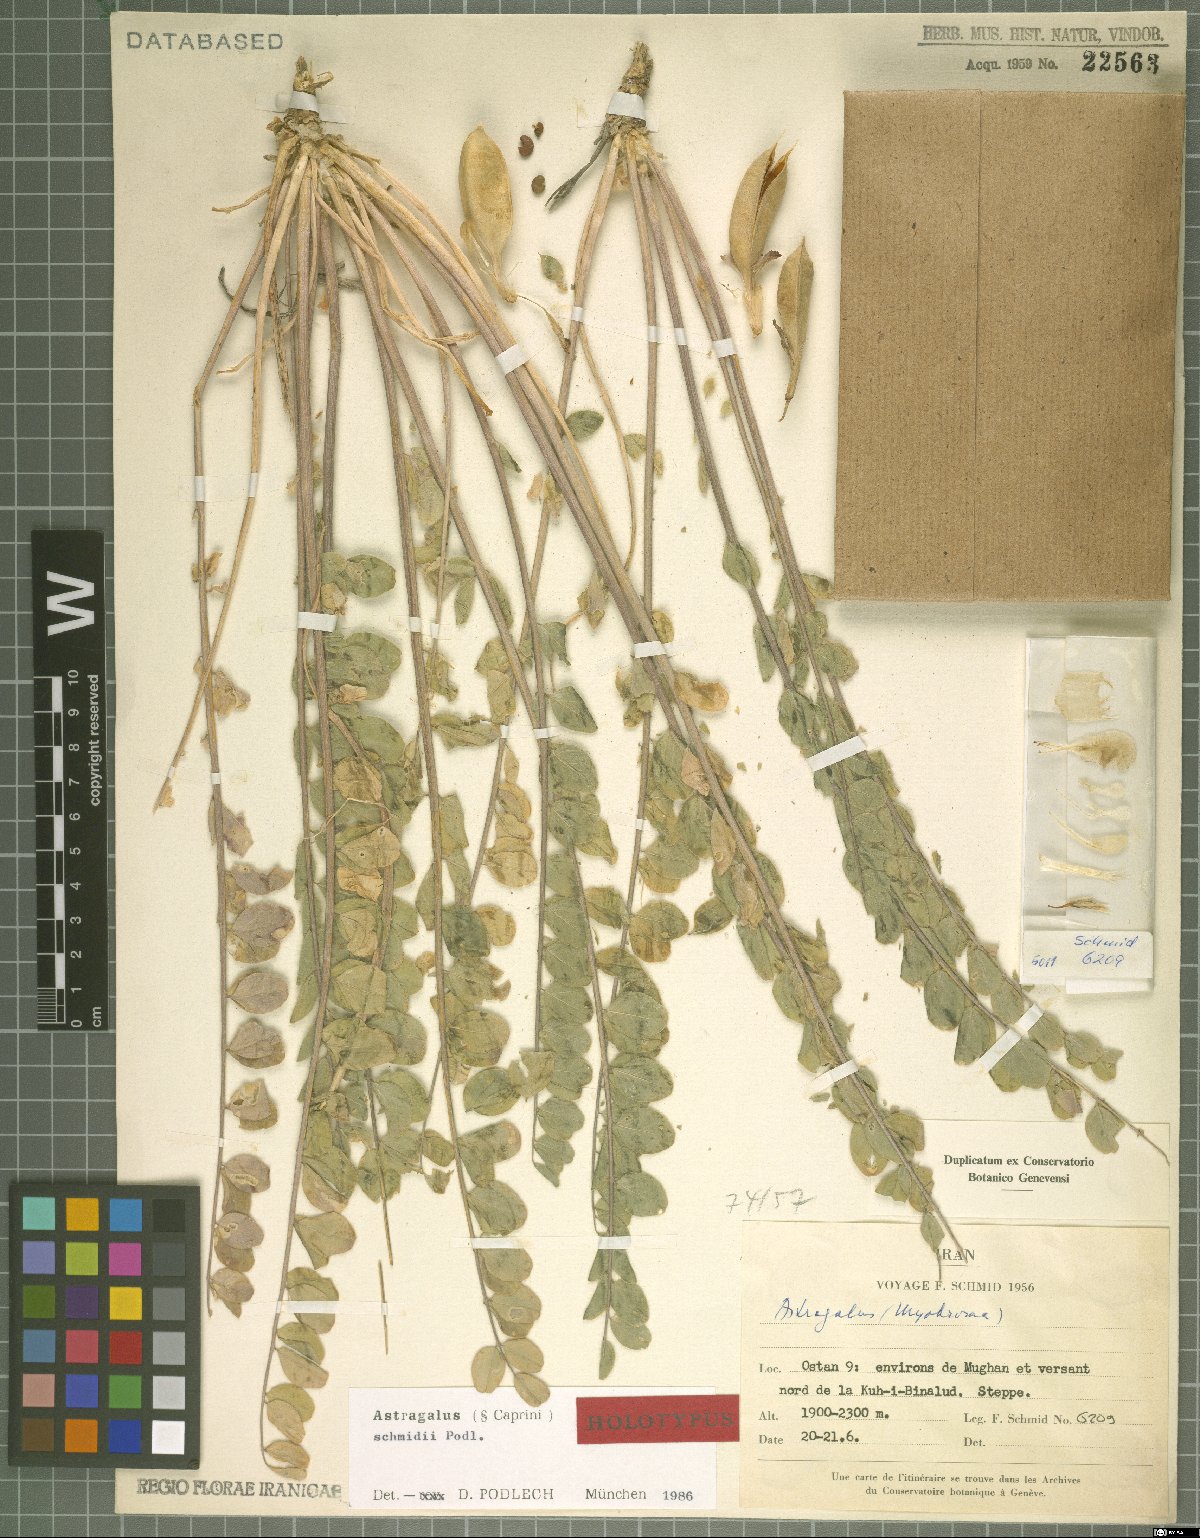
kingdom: Plantae
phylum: Tracheophyta
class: Magnoliopsida
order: Fabales
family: Fabaceae
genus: Astragalus
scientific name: Astragalus schmidii
